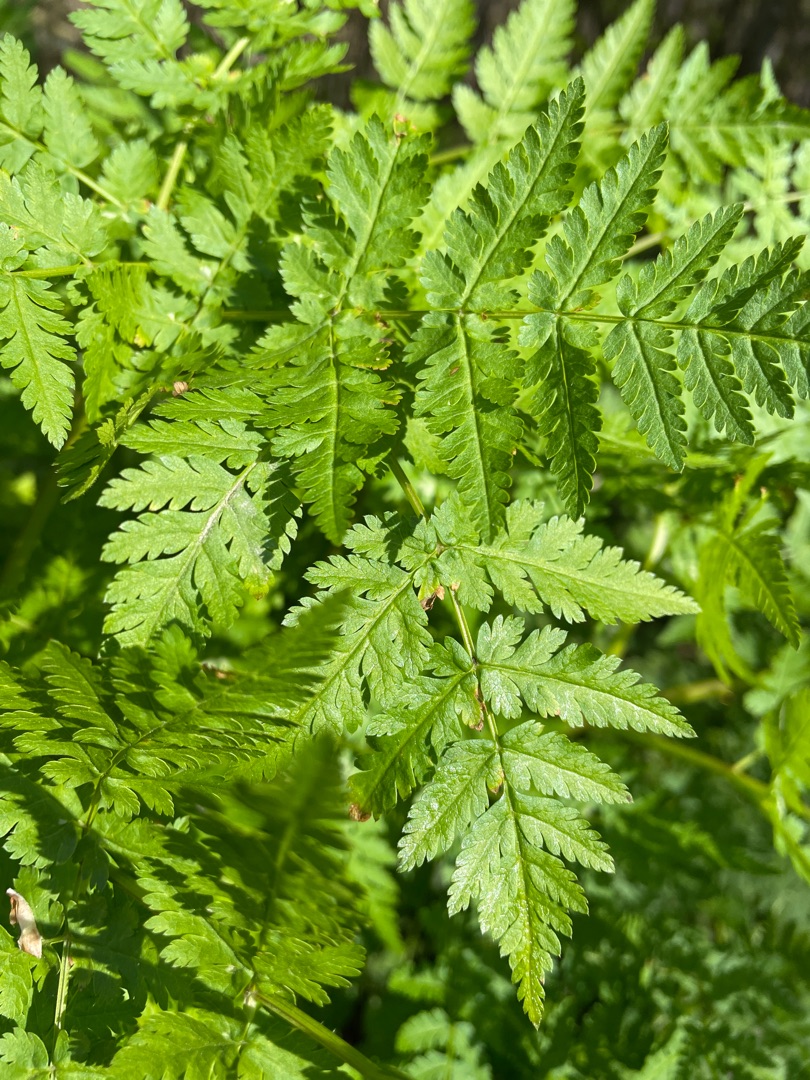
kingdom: Plantae
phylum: Tracheophyta
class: Magnoliopsida
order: Apiales
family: Apiaceae
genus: Myrrhis
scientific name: Myrrhis odorata
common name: Sødskærm
